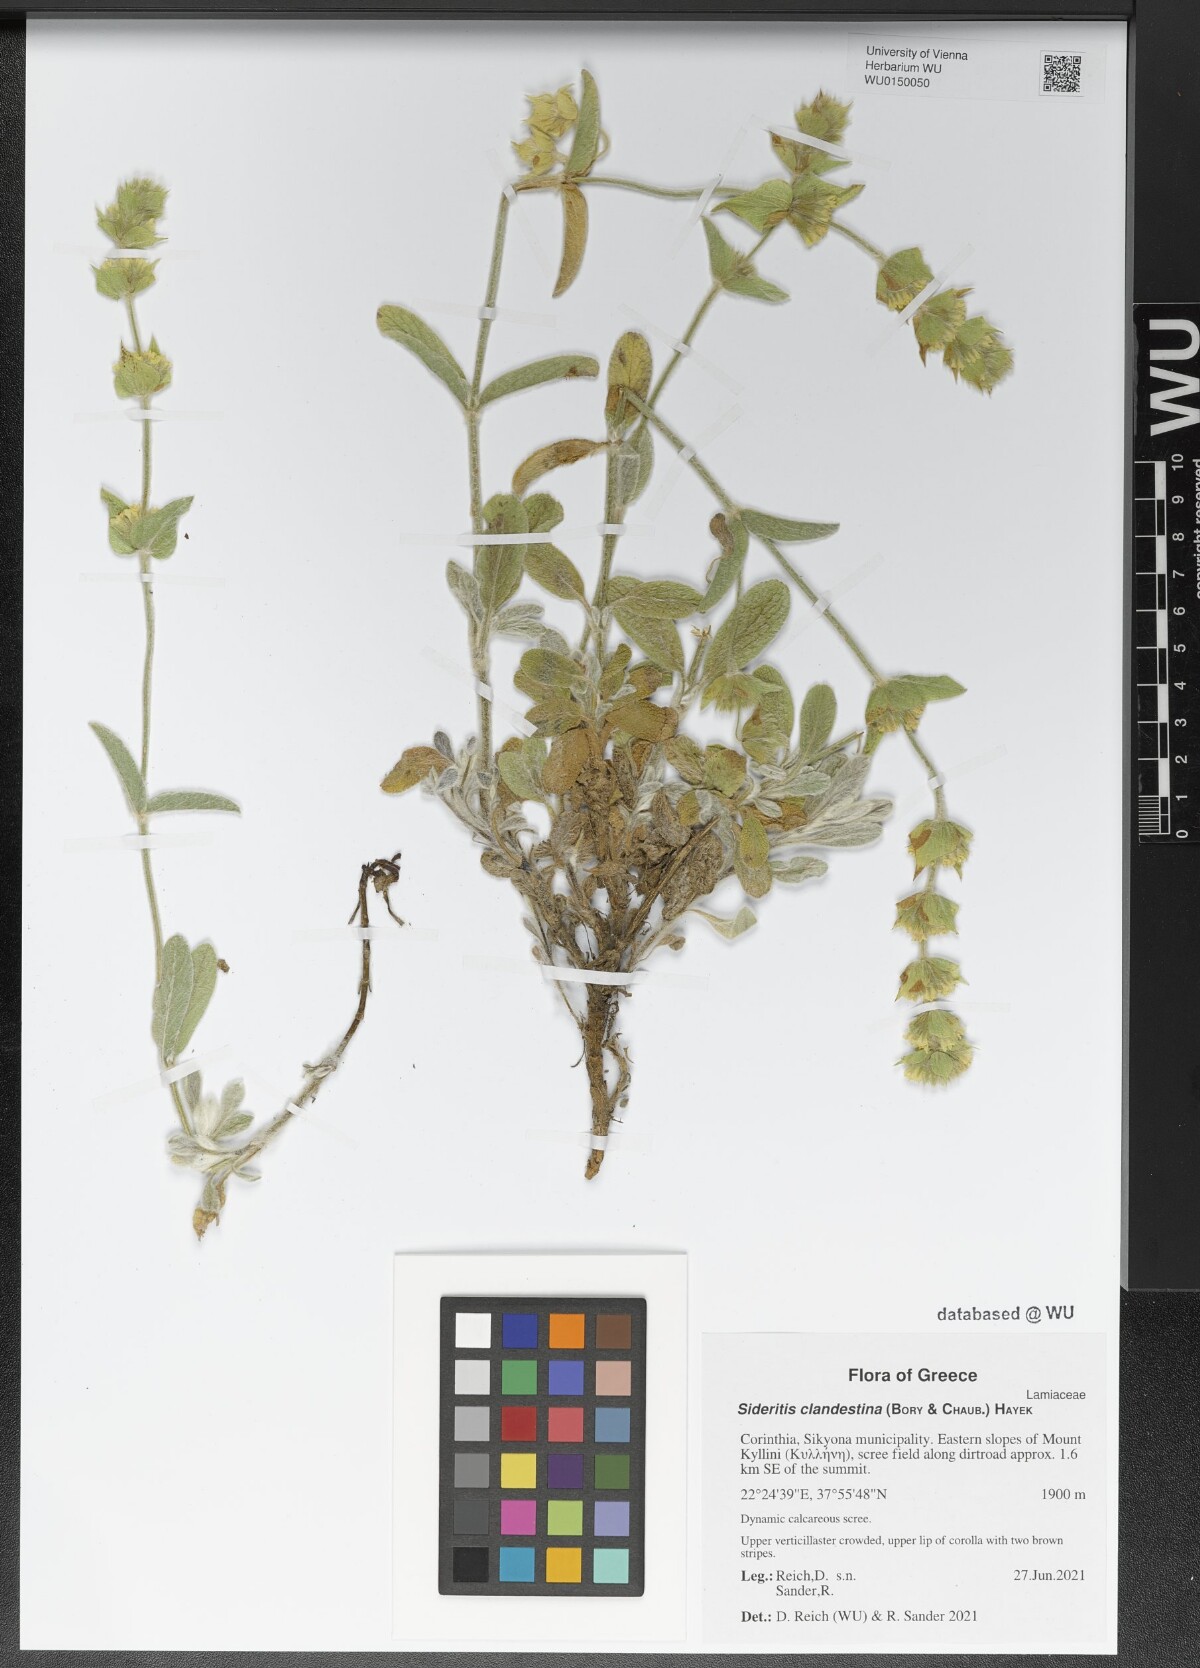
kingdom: Plantae
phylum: Tracheophyta
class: Magnoliopsida
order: Lamiales
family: Lamiaceae
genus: Sideritis
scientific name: Sideritis clandestina
